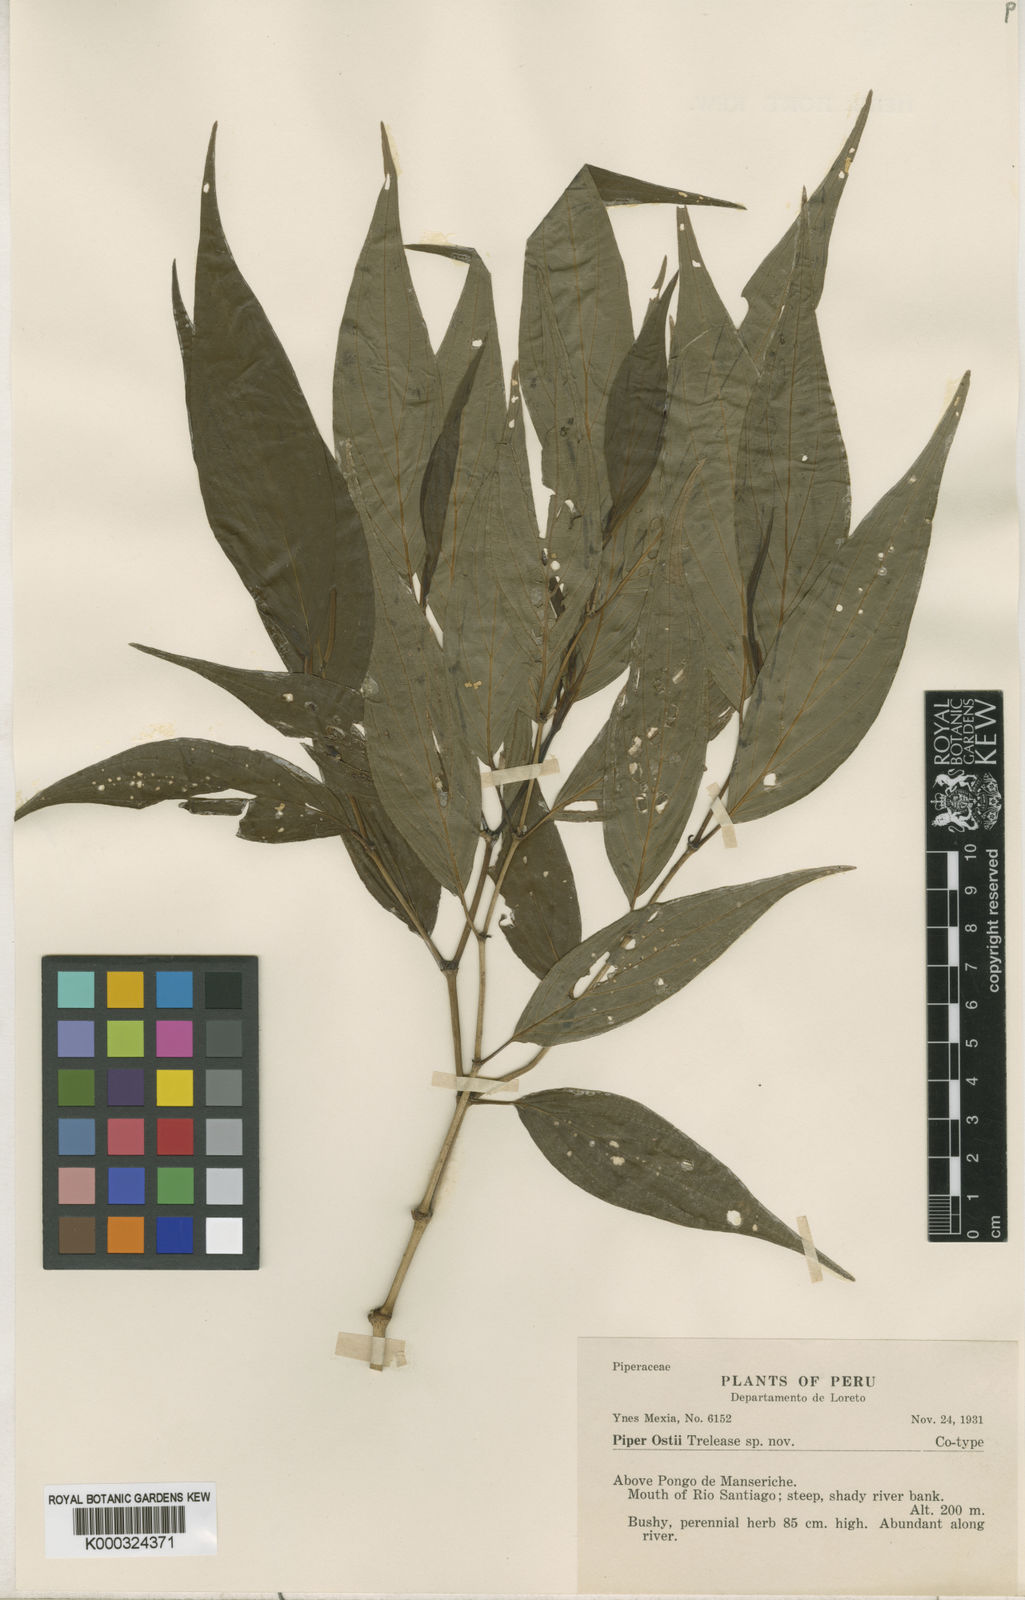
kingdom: Plantae
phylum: Tracheophyta
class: Magnoliopsida
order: Piperales
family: Piperaceae
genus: Piper
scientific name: Piper ostii
